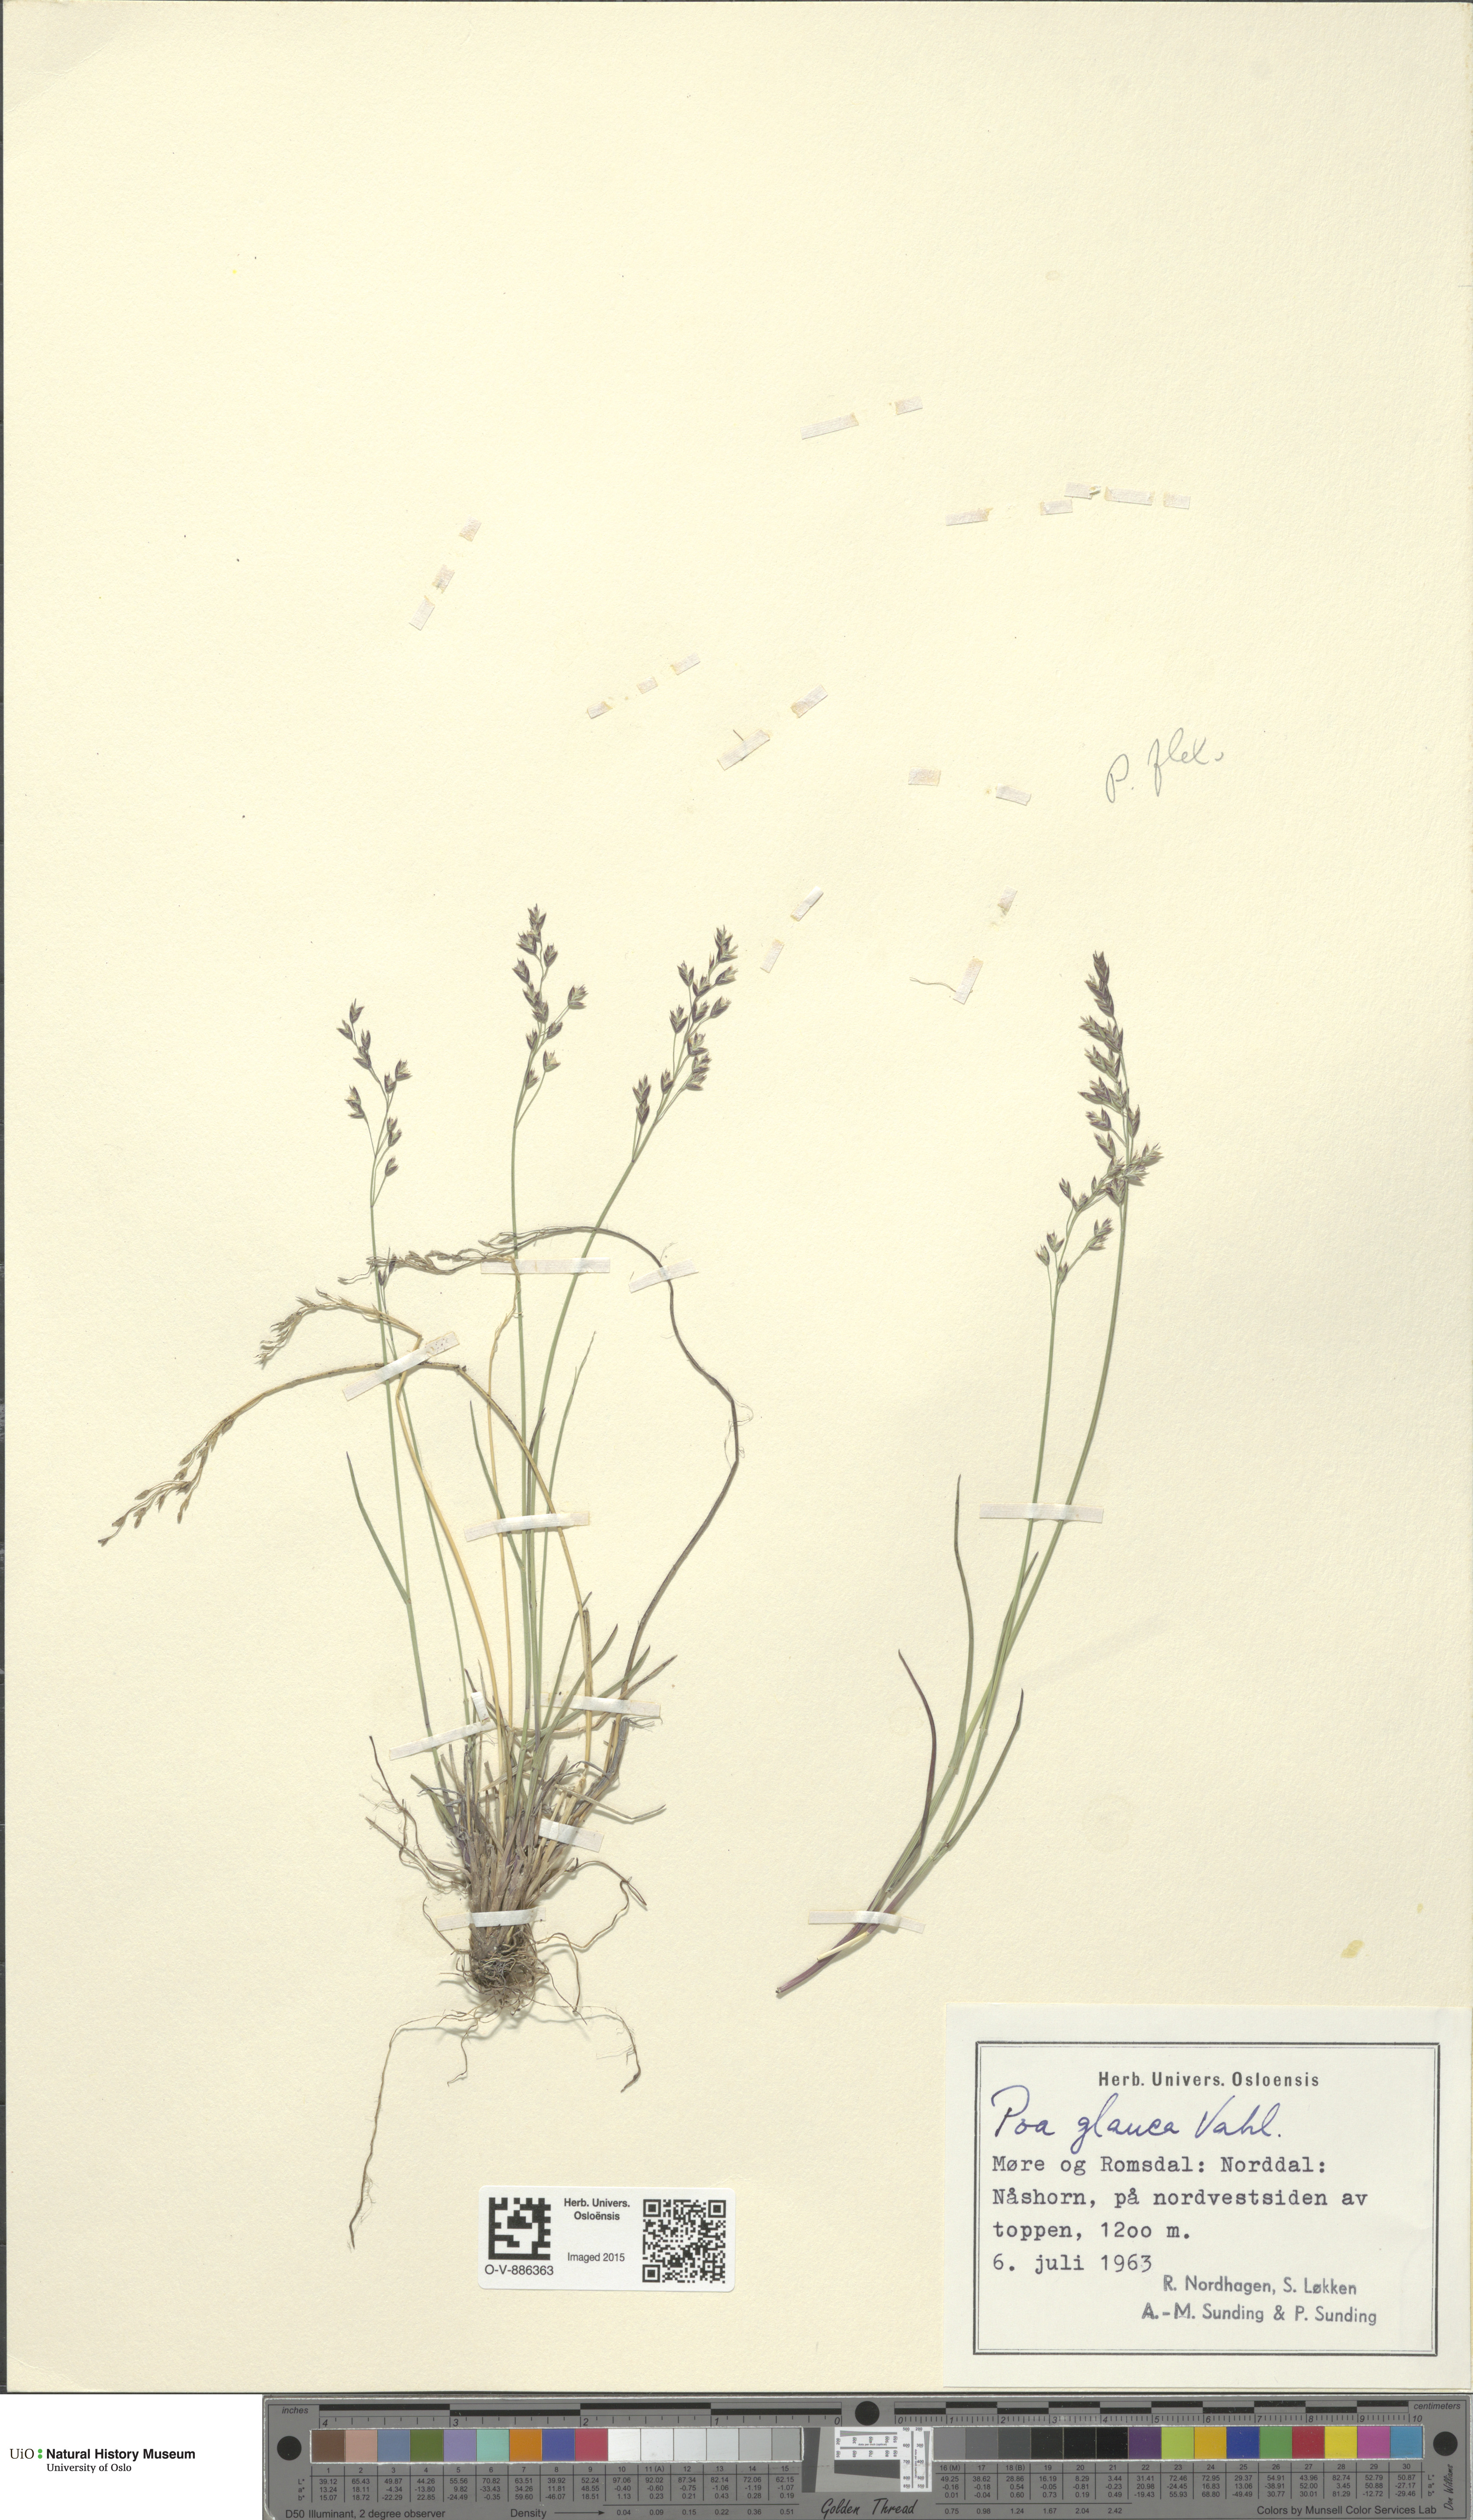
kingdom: Plantae
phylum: Tracheophyta
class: Liliopsida
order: Poales
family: Poaceae
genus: Poa
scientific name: Poa glauca
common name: Glaucous bluegrass
